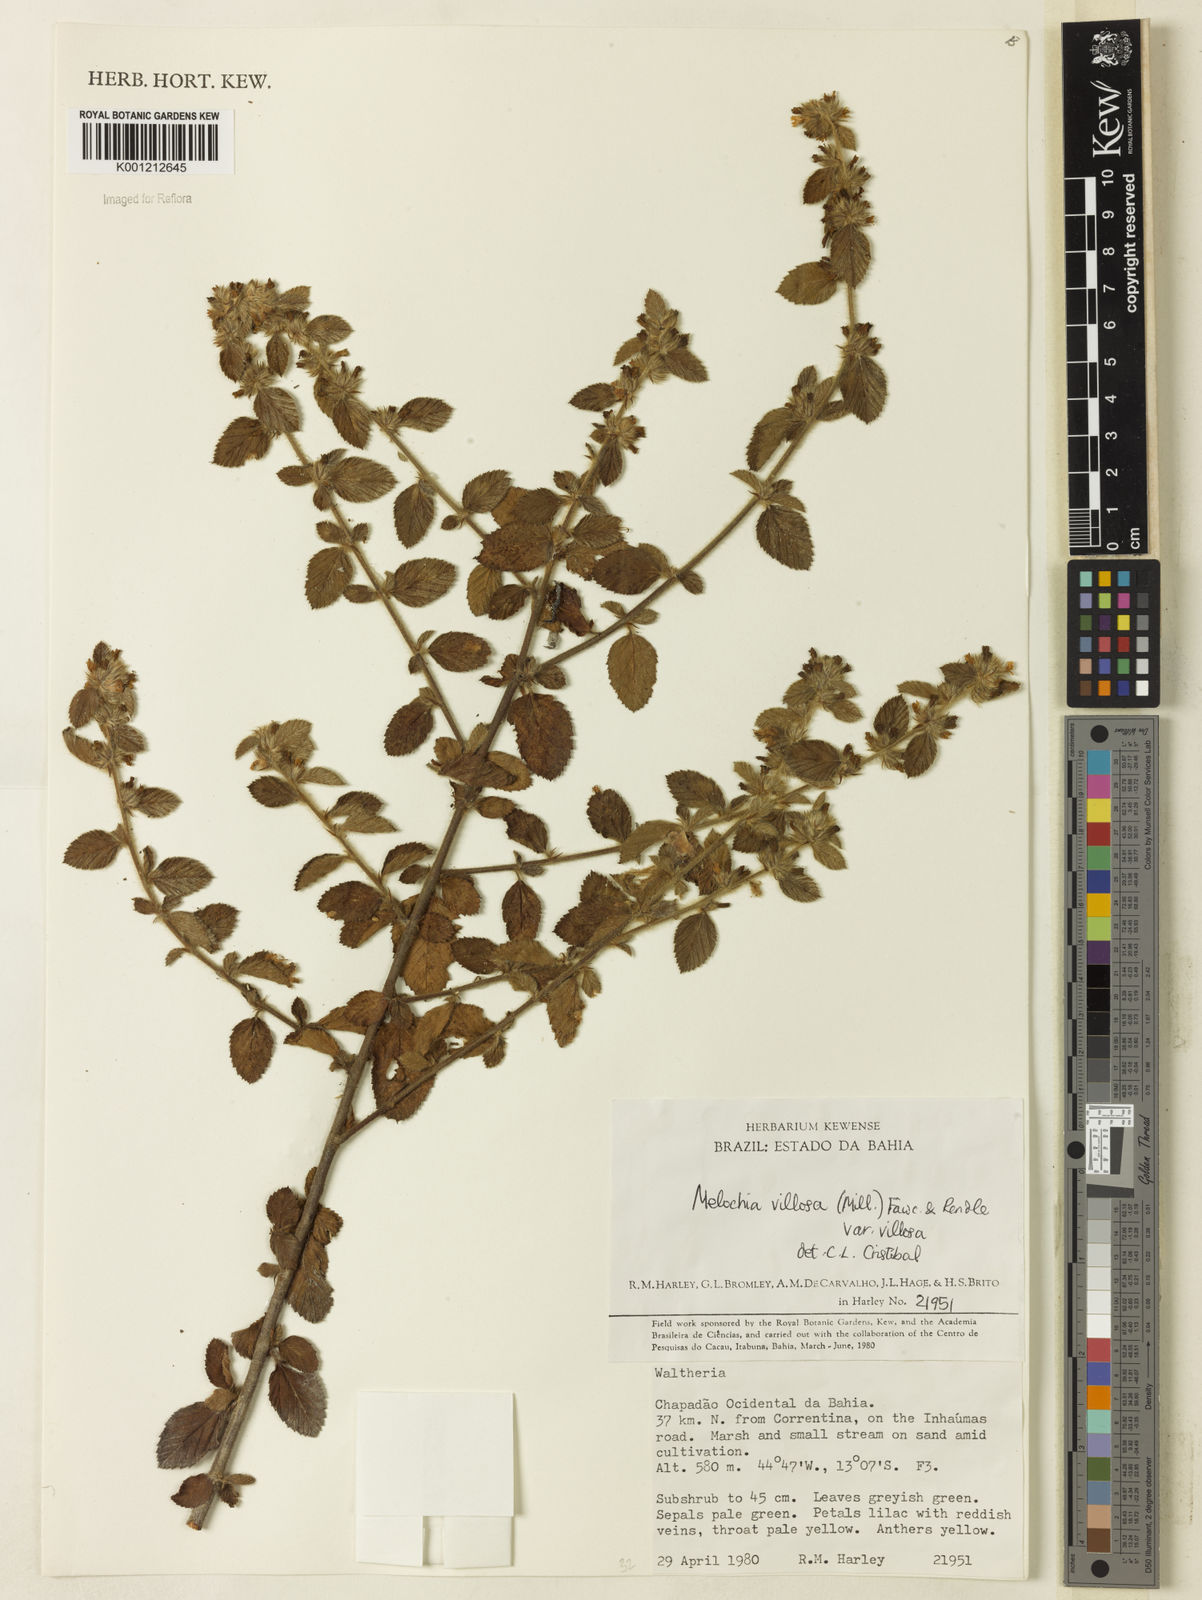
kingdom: Plantae
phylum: Tracheophyta
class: Magnoliopsida
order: Malvales
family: Malvaceae
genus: Melochia
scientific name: Melochia spicata
